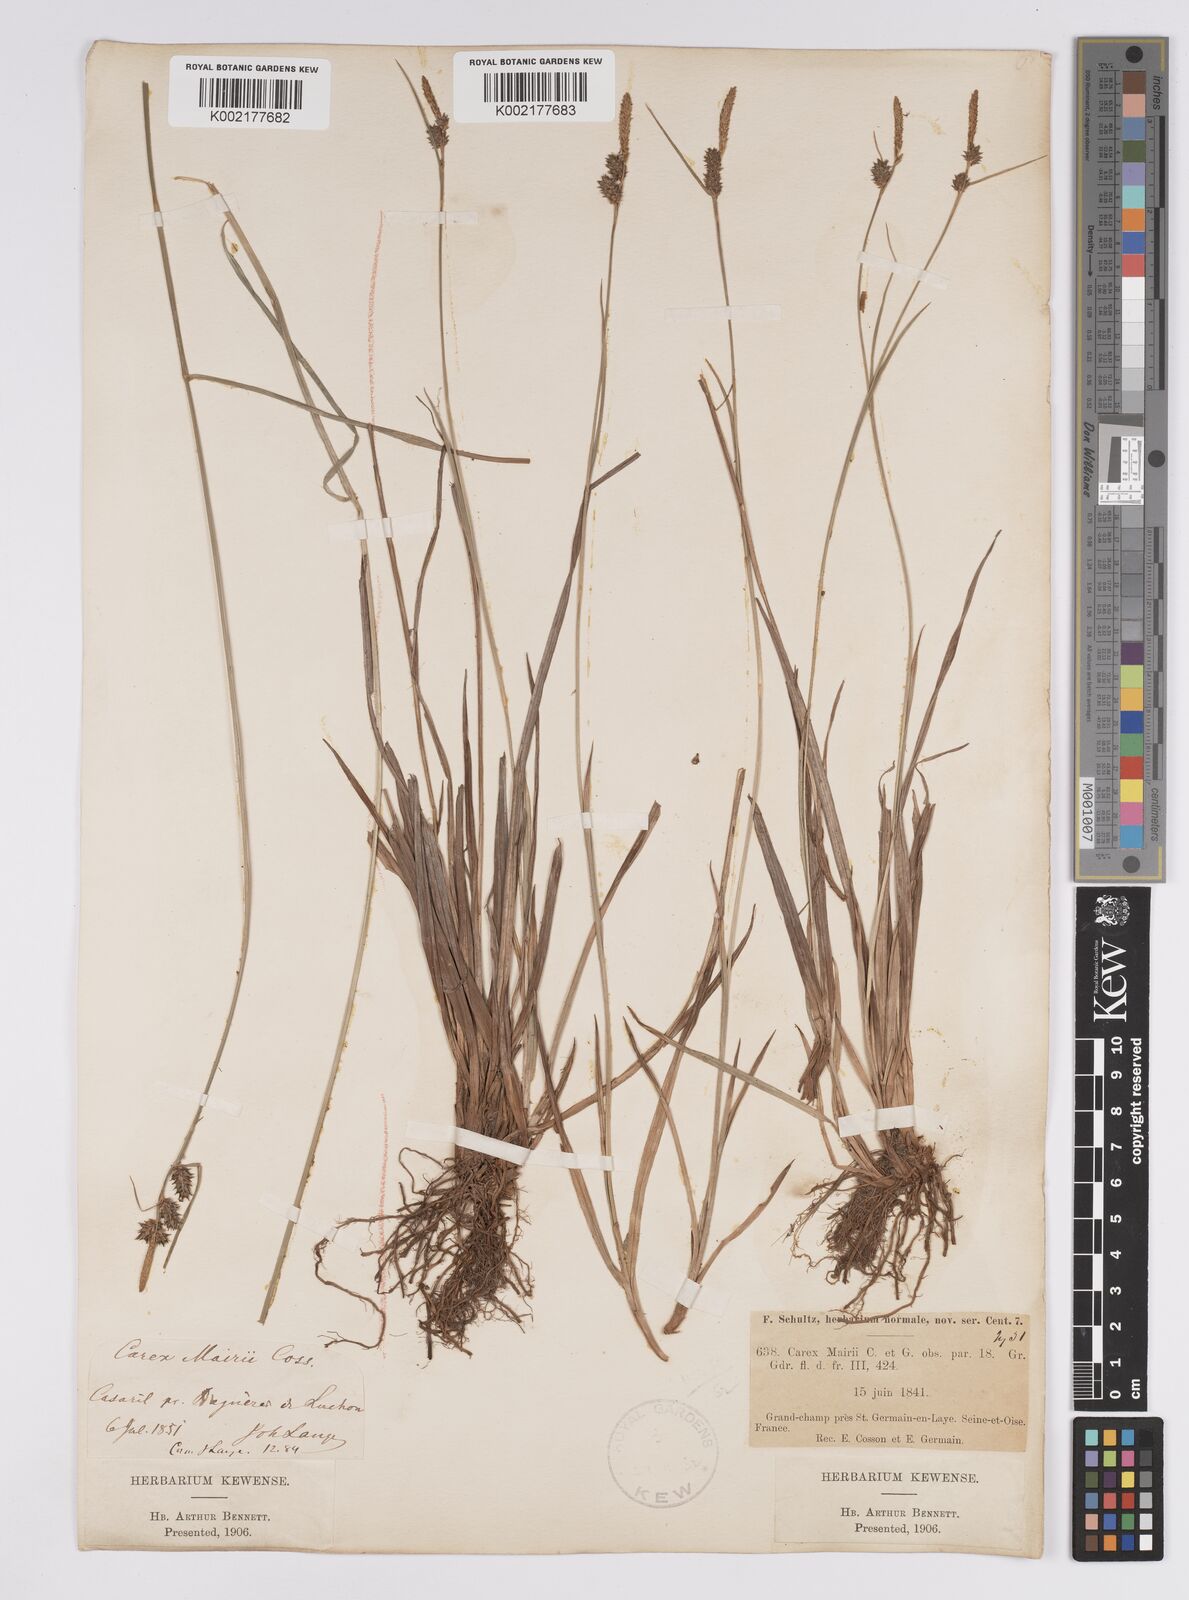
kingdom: Plantae
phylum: Tracheophyta
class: Liliopsida
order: Poales
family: Cyperaceae
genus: Carex
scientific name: Carex mairei
